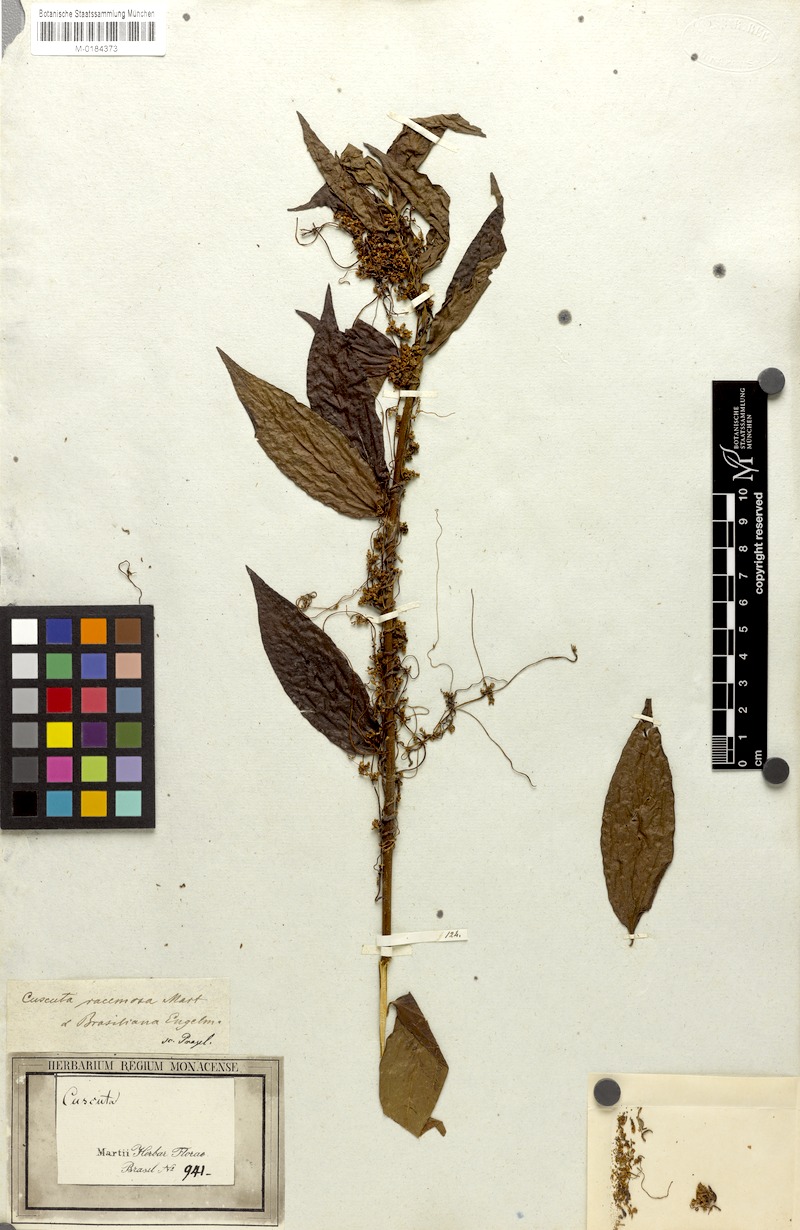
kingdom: Plantae
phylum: Tracheophyta
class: Magnoliopsida
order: Solanales
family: Convolvulaceae
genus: Cuscuta
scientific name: Cuscuta racemosa
